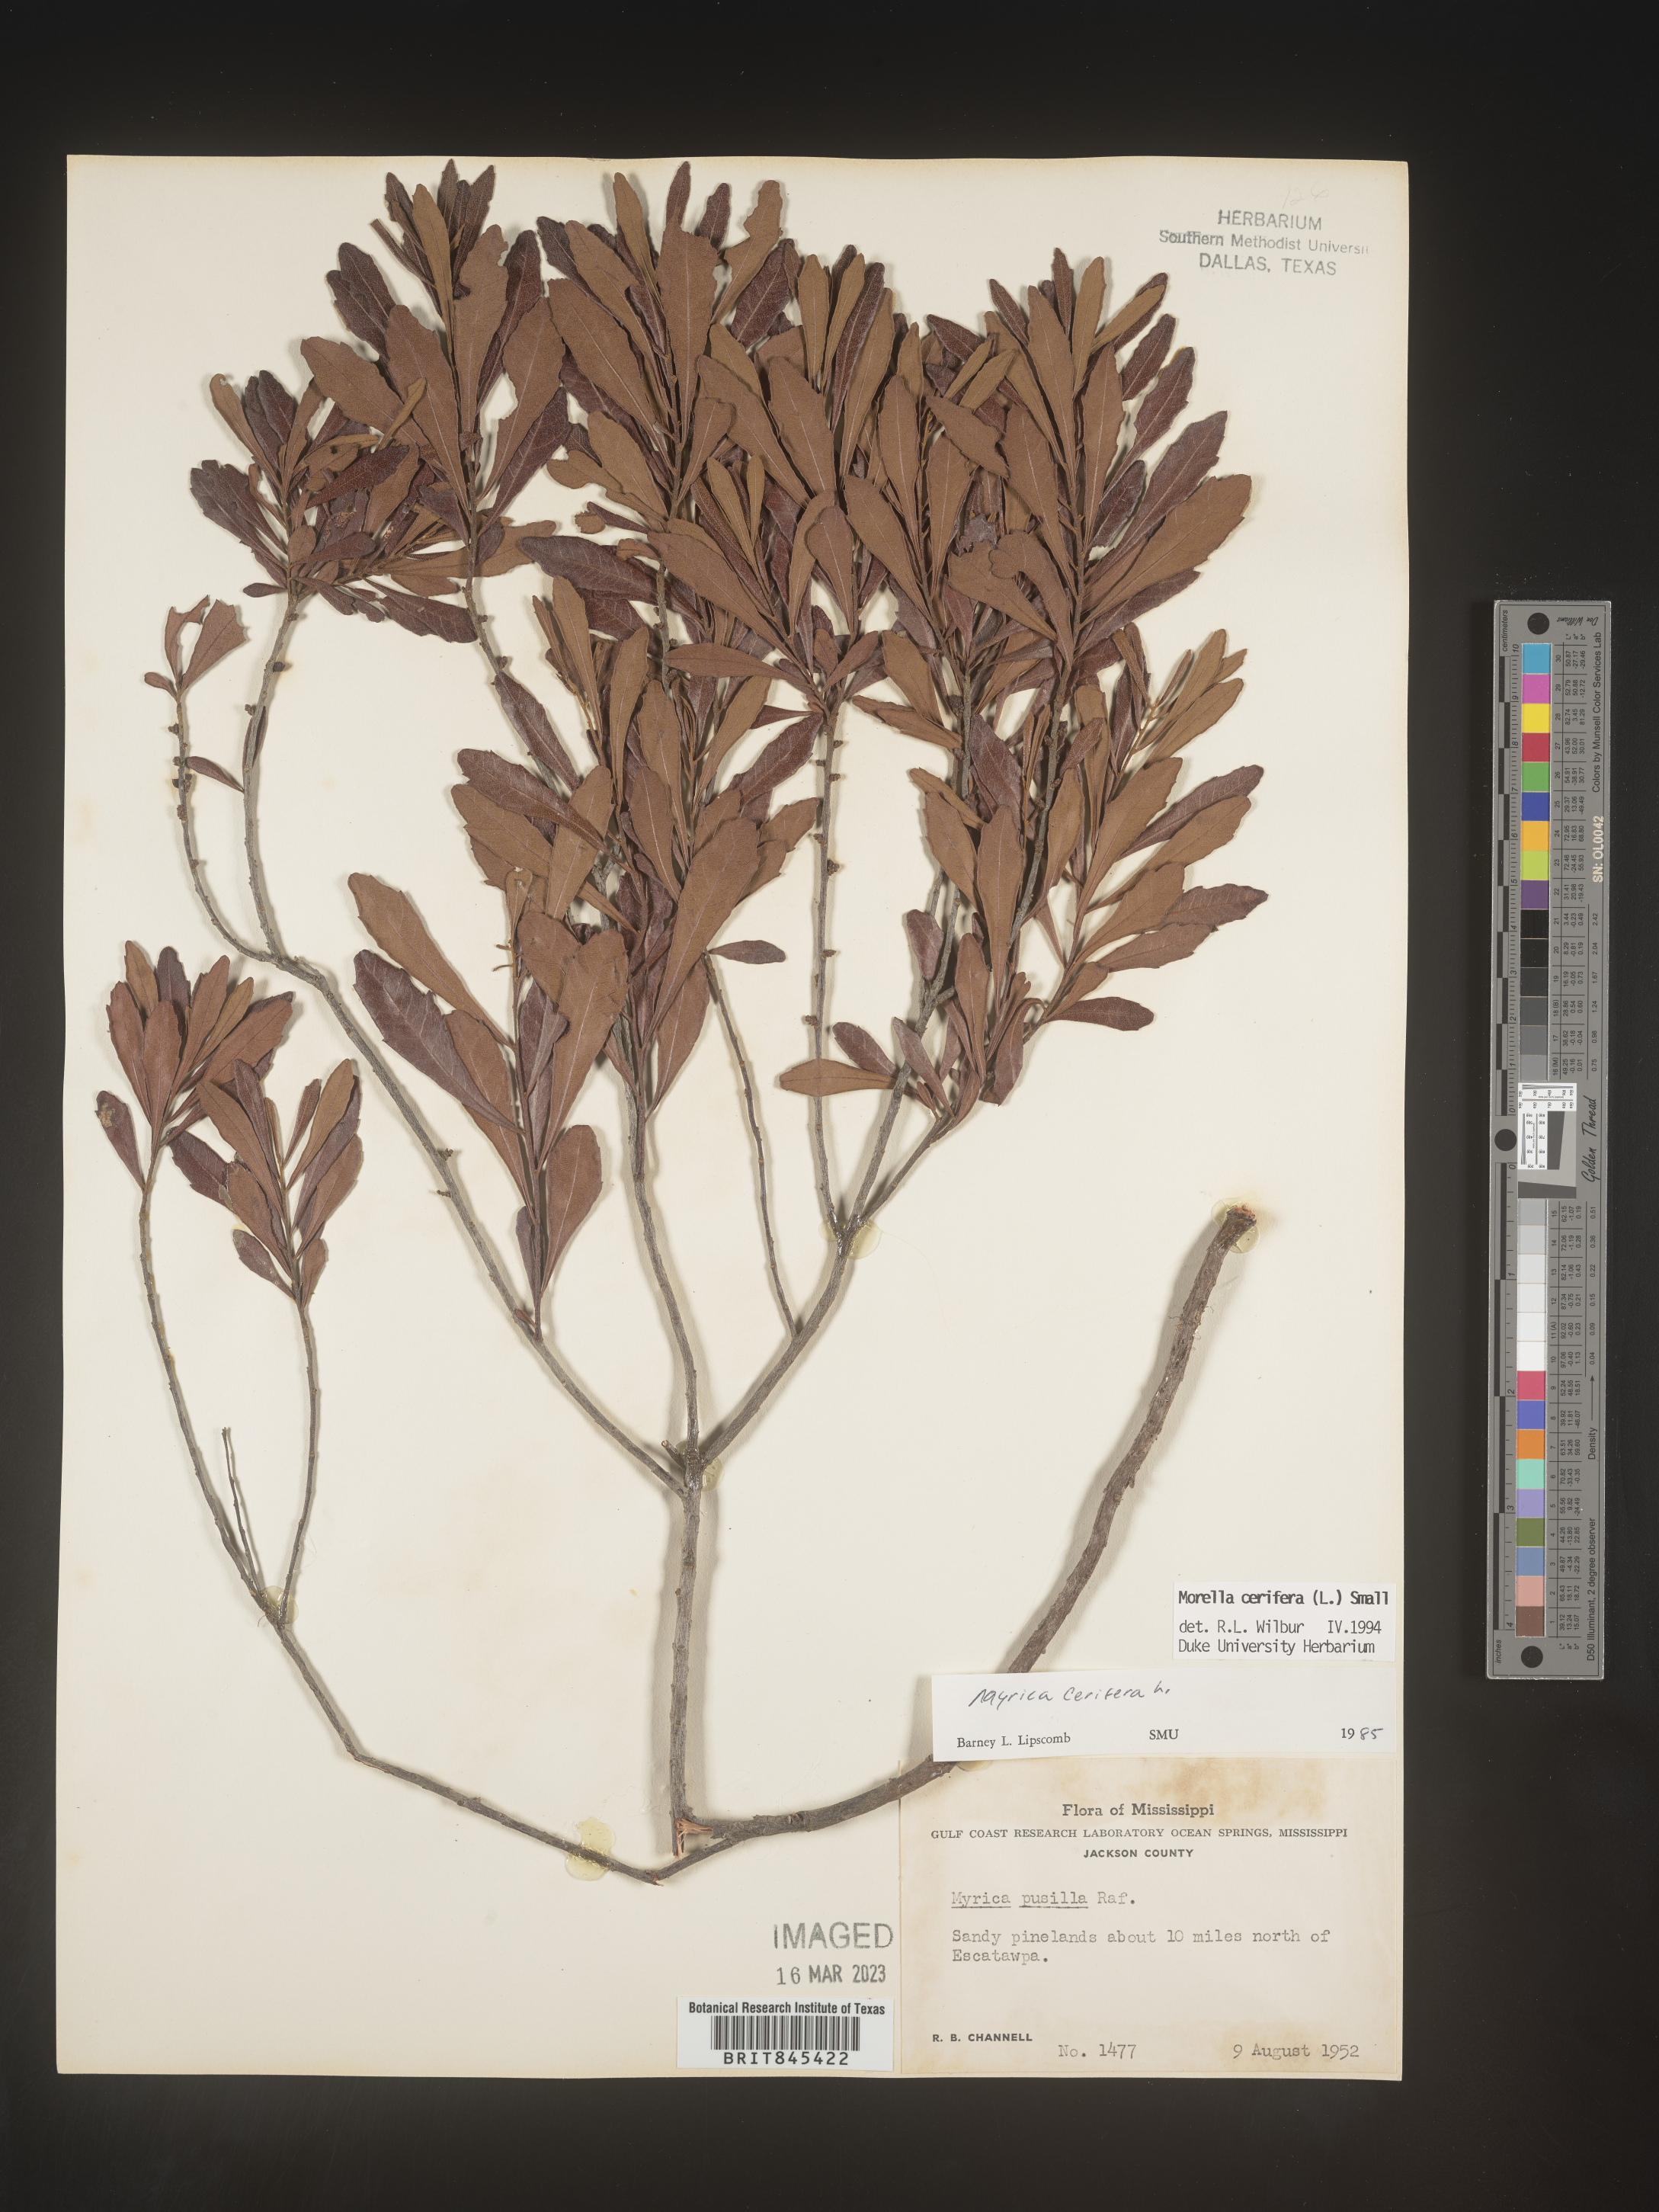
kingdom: Plantae
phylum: Tracheophyta
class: Magnoliopsida
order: Fagales
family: Myricaceae
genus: Morella
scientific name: Morella cerifera
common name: Wax myrtle
